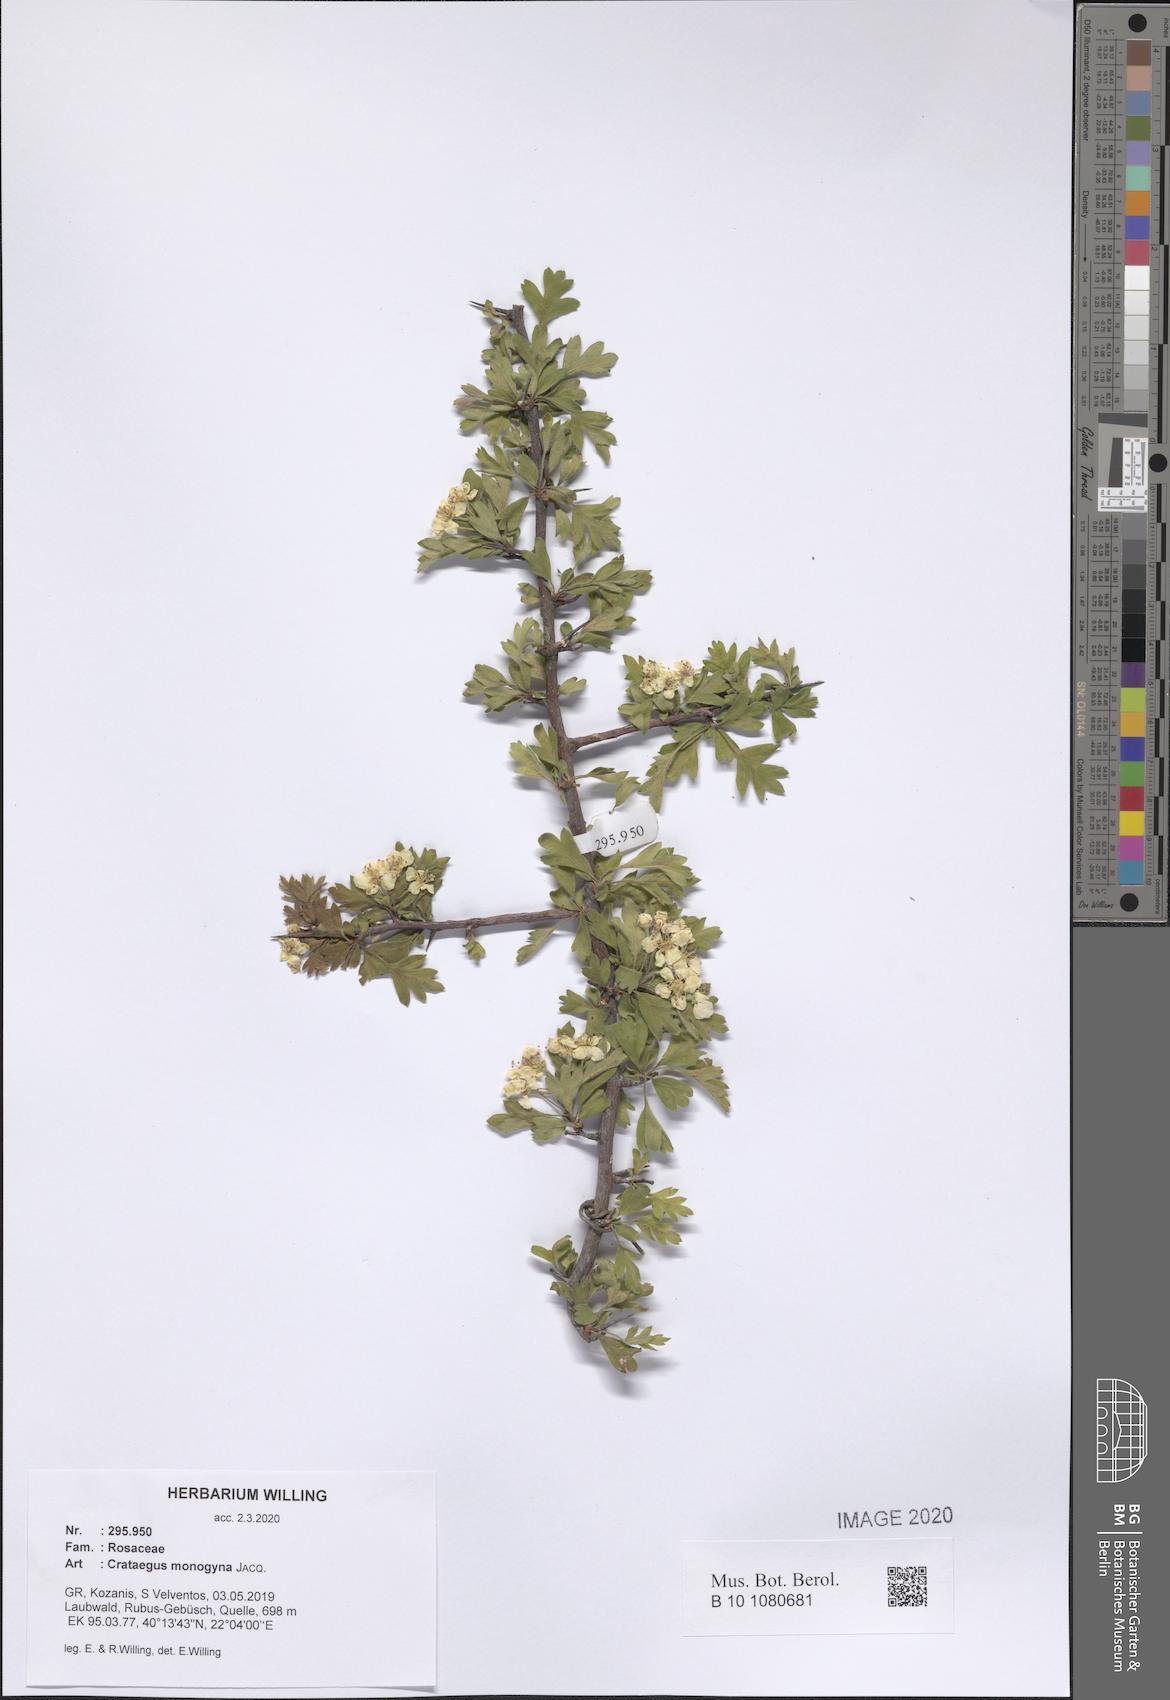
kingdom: Plantae
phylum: Tracheophyta
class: Magnoliopsida
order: Rosales
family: Rosaceae
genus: Crataegus
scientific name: Crataegus monogyna
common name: Hawthorn
